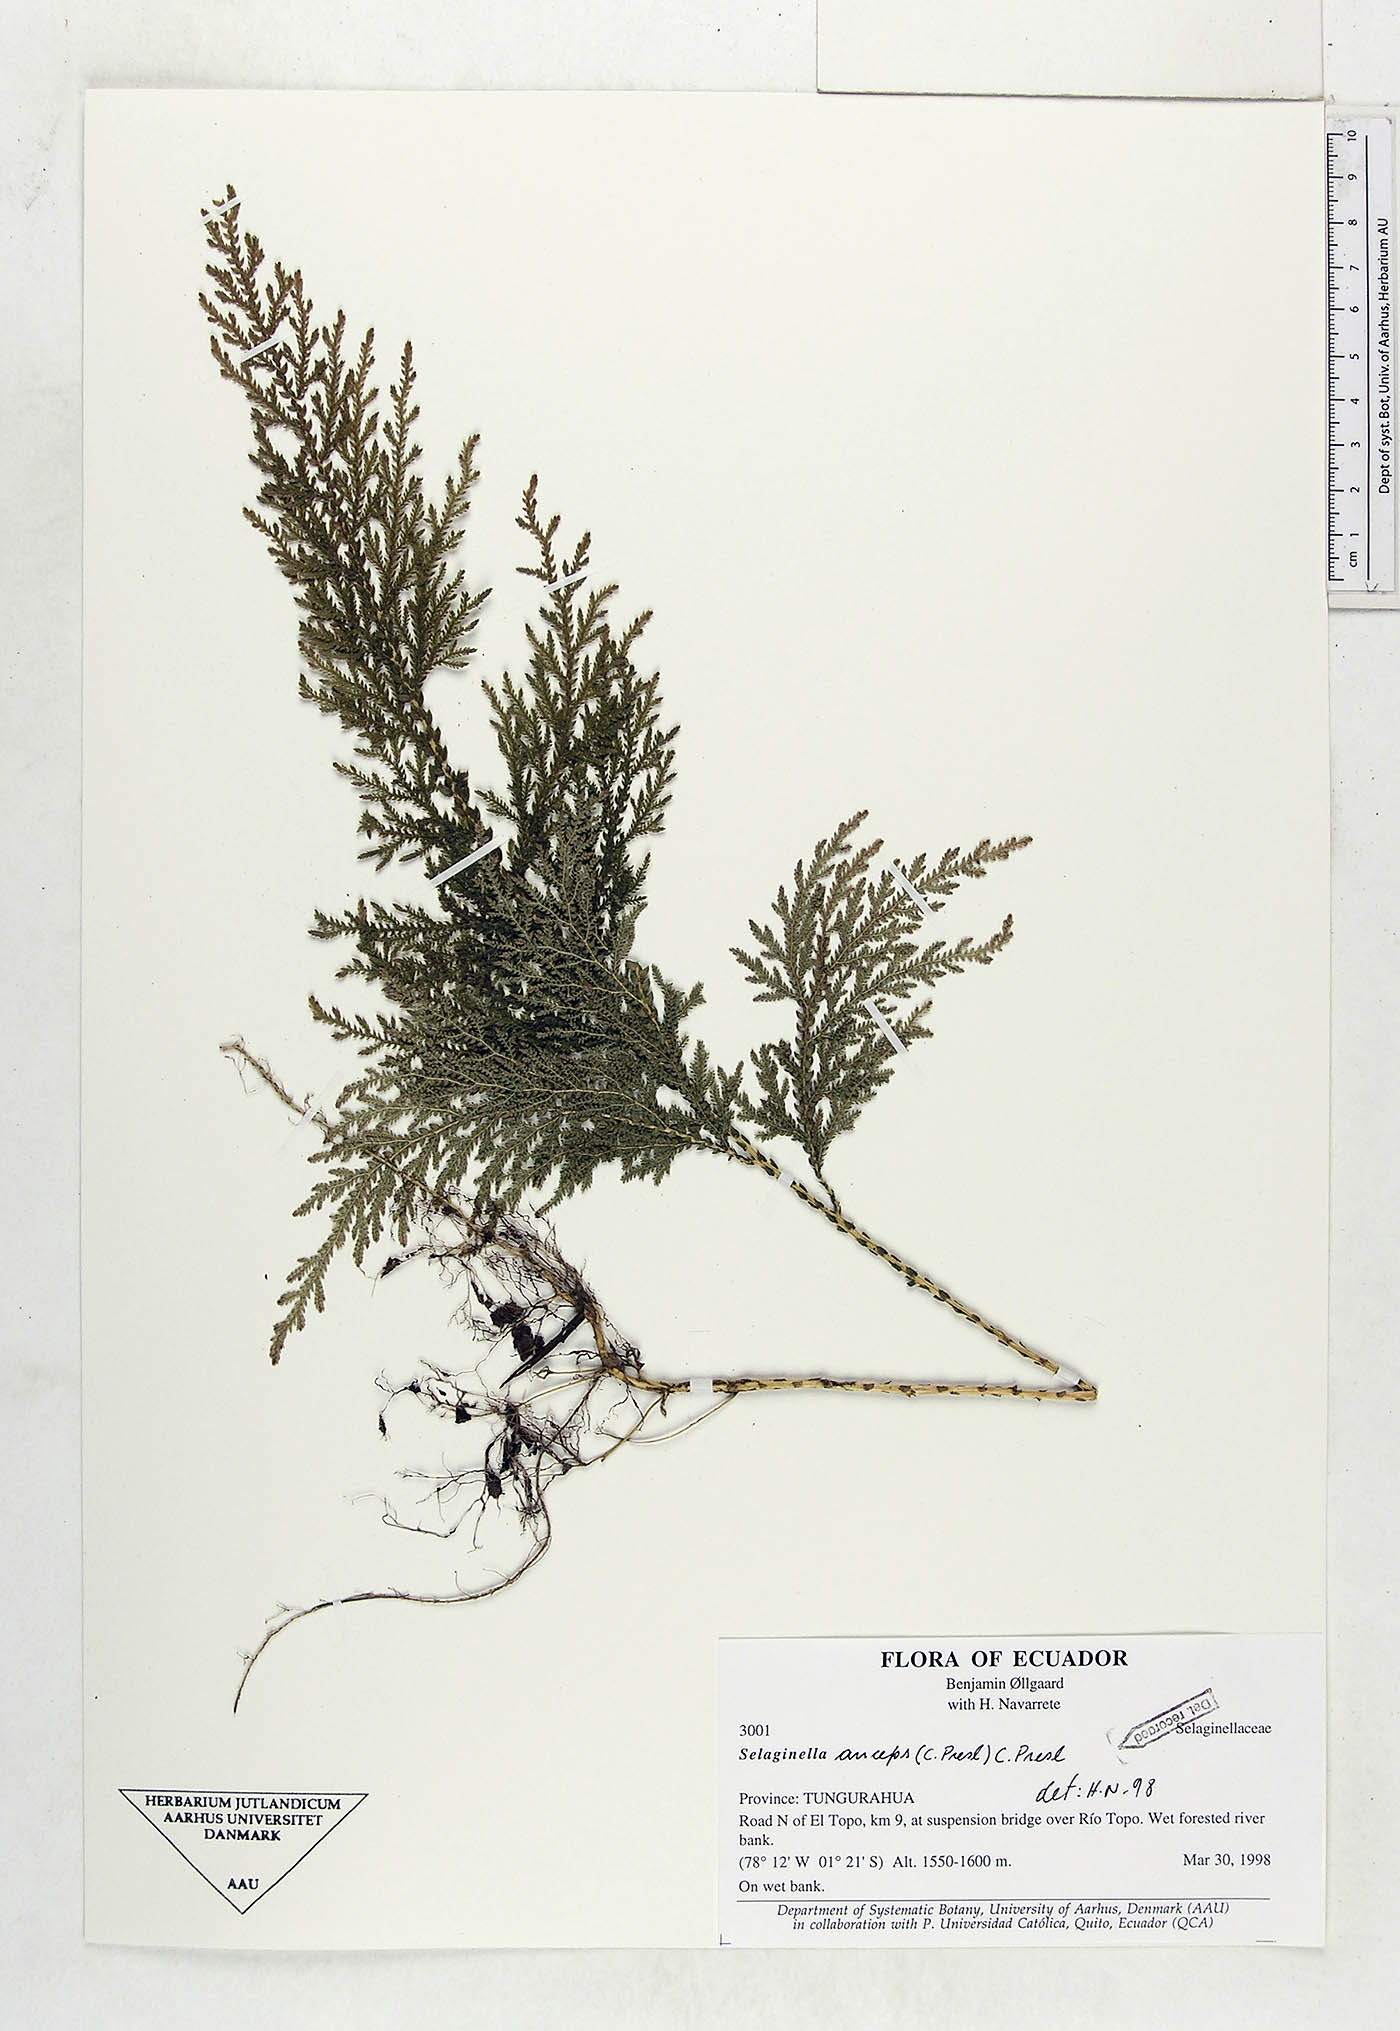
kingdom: Plantae
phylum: Tracheophyta
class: Lycopodiopsida
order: Selaginellales
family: Selaginellaceae
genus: Selaginella
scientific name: Selaginella anceps
